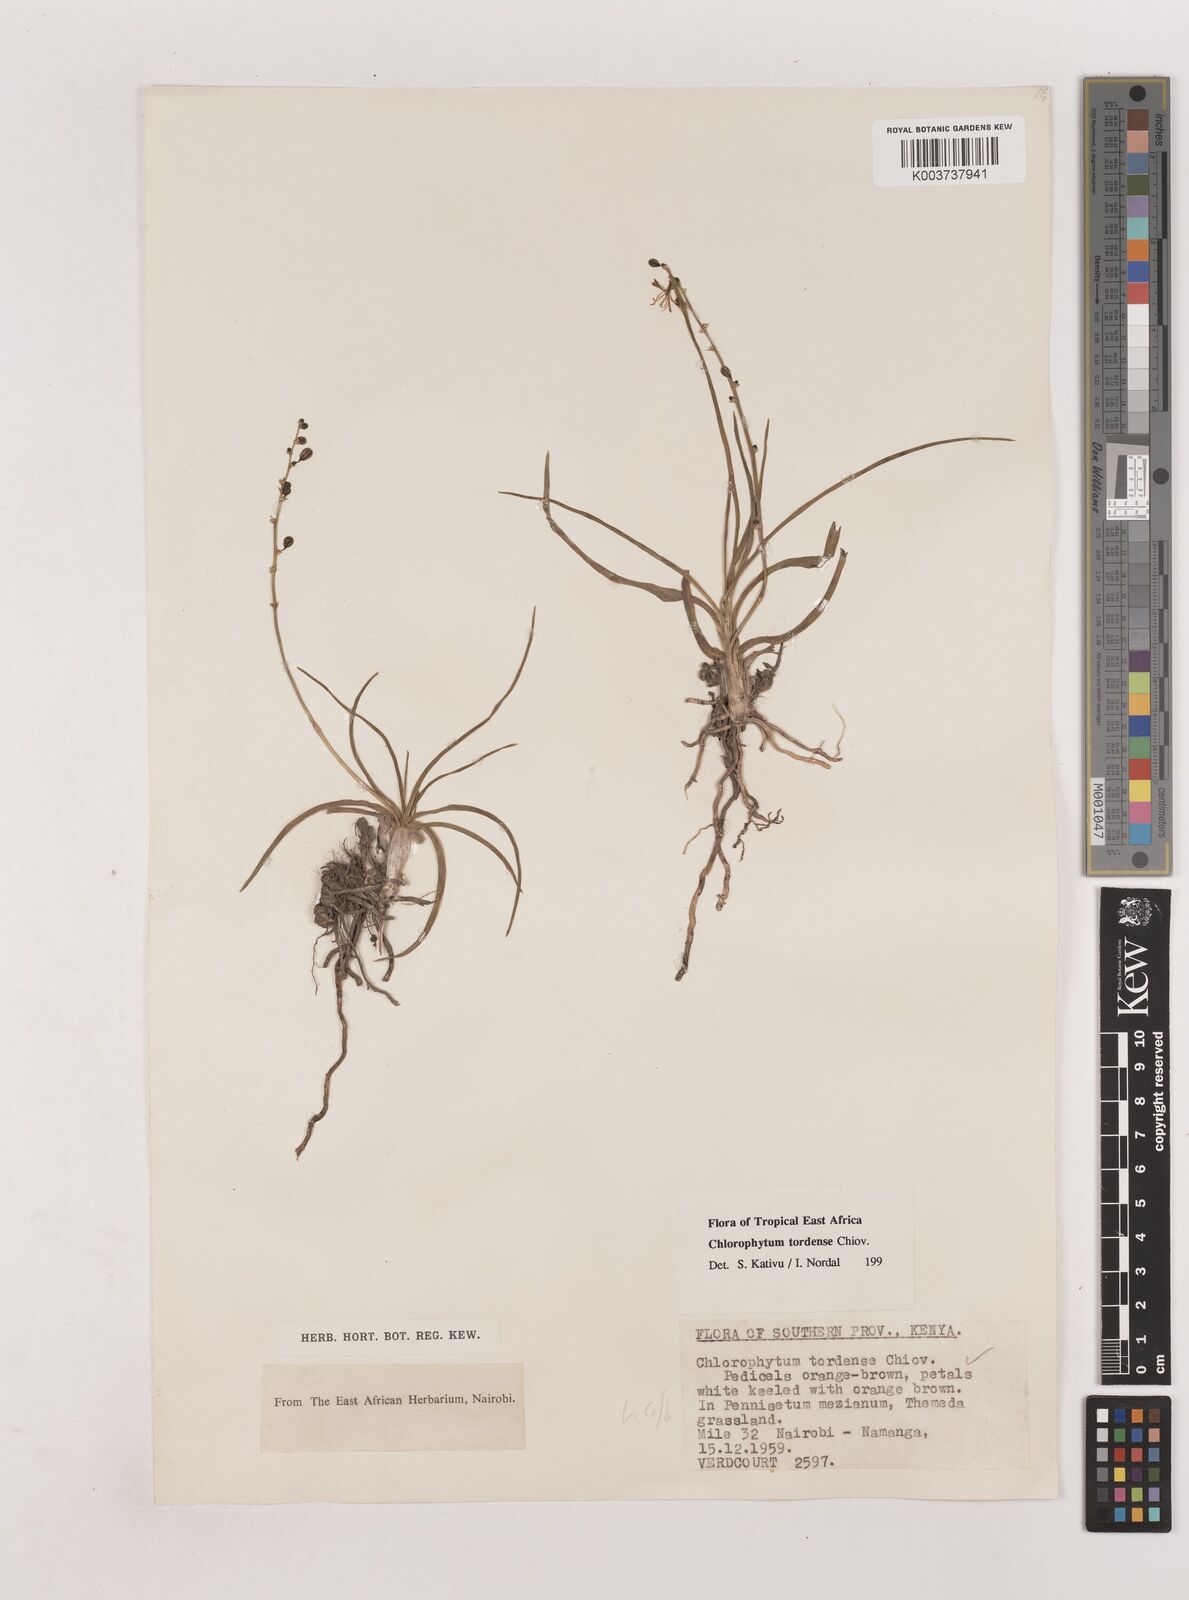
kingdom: Plantae
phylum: Tracheophyta
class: Liliopsida
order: Asparagales
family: Asparagaceae
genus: Chlorophytum
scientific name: Chlorophytum tordense
